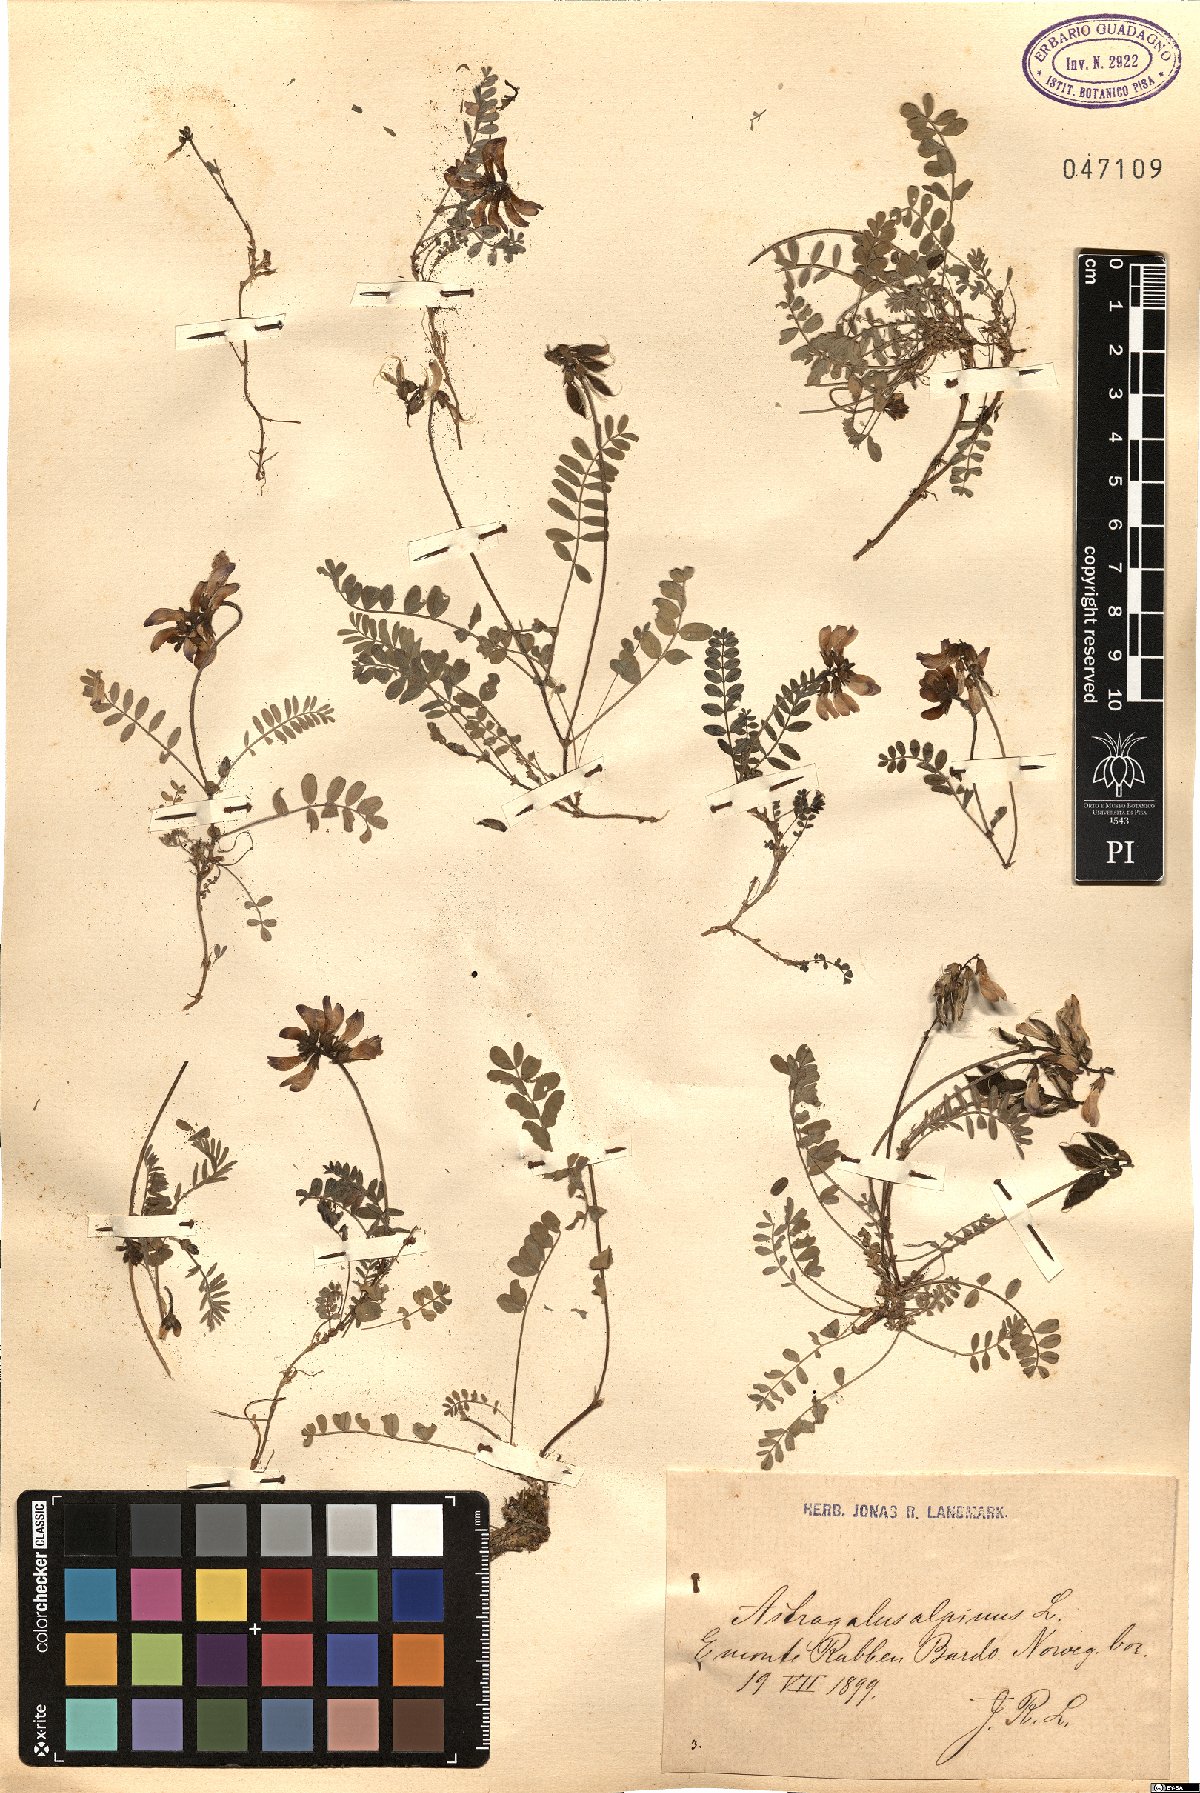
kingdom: Plantae
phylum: Tracheophyta
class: Magnoliopsida
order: Fabales
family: Fabaceae
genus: Astragalus
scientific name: Astragalus alpinus
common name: Alpine milk-vetch
